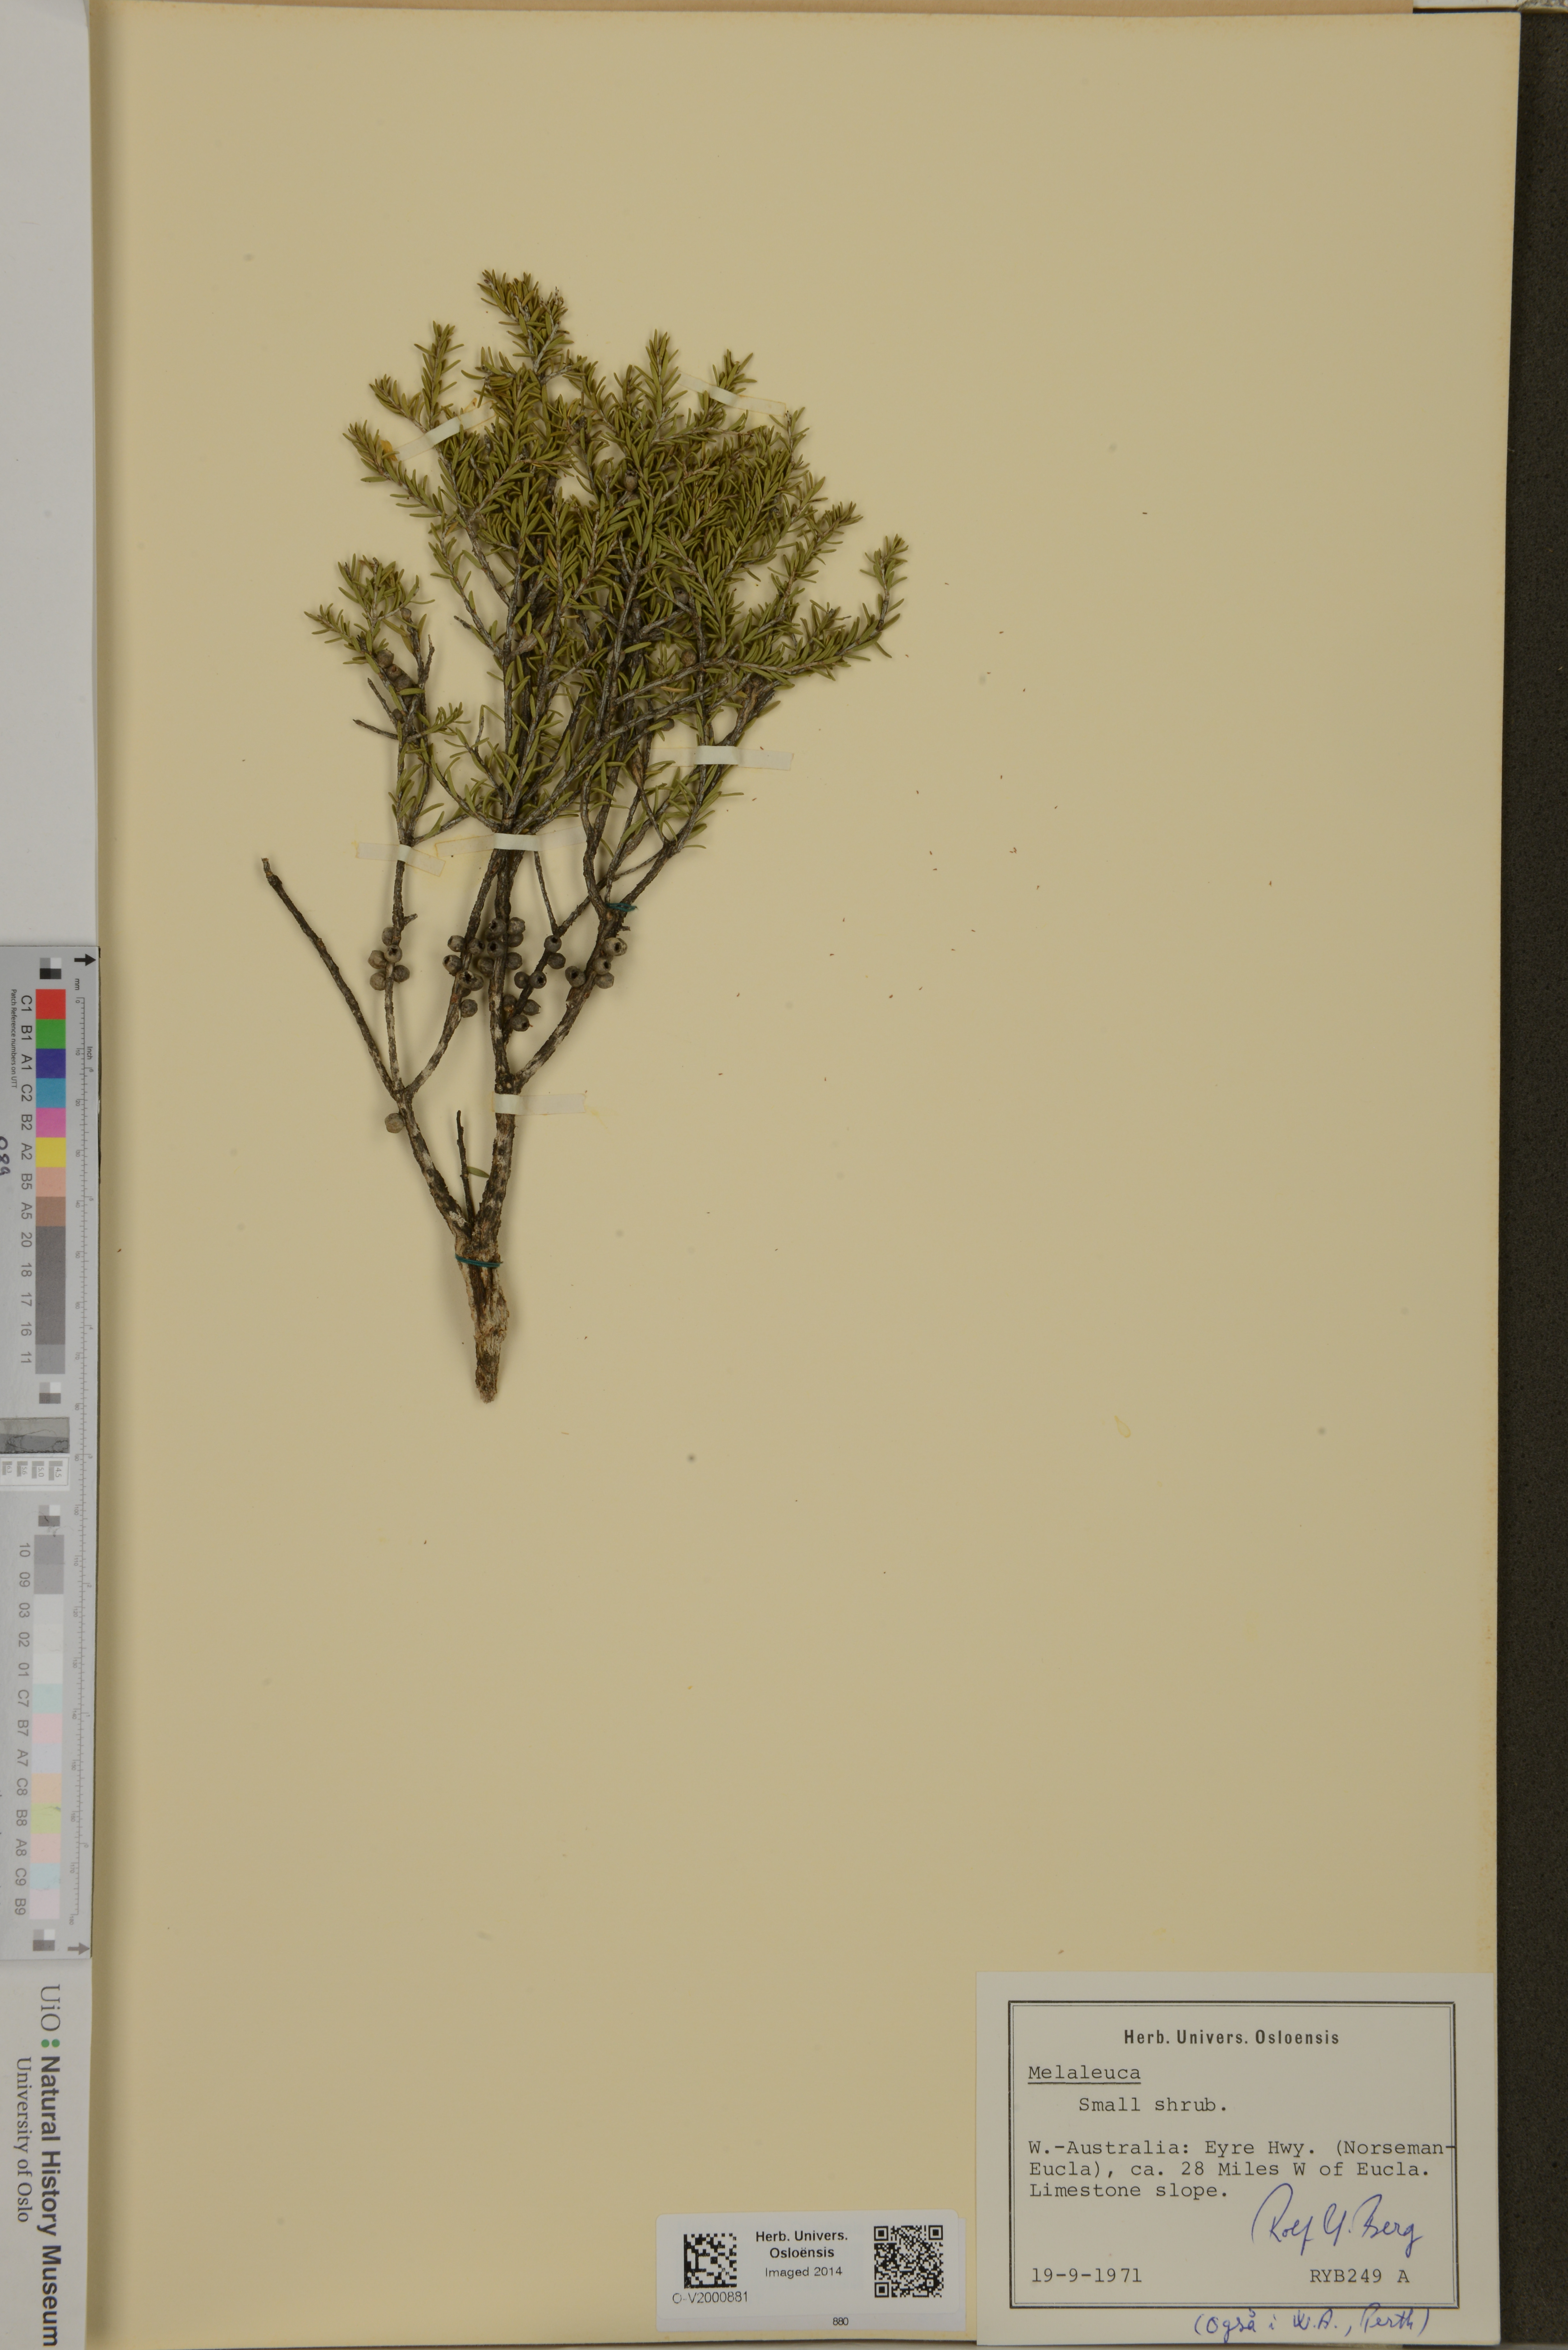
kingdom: Plantae
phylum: Tracheophyta
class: Magnoliopsida
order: Myrtales
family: Myrtaceae
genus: Melaleuca
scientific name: Melaleuca
